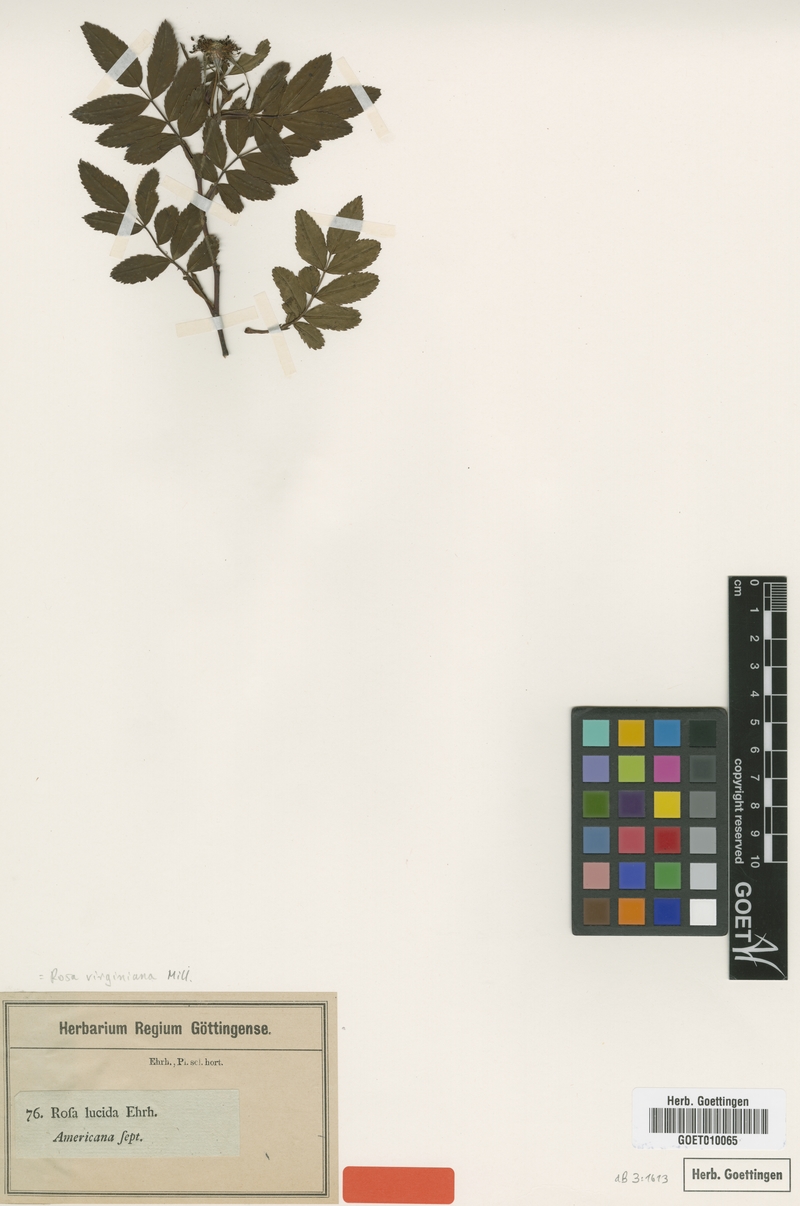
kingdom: Plantae
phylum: Tracheophyta
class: Magnoliopsida
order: Rosales
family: Rosaceae
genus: Rosa
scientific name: Rosa carolina
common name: Pasture rose
